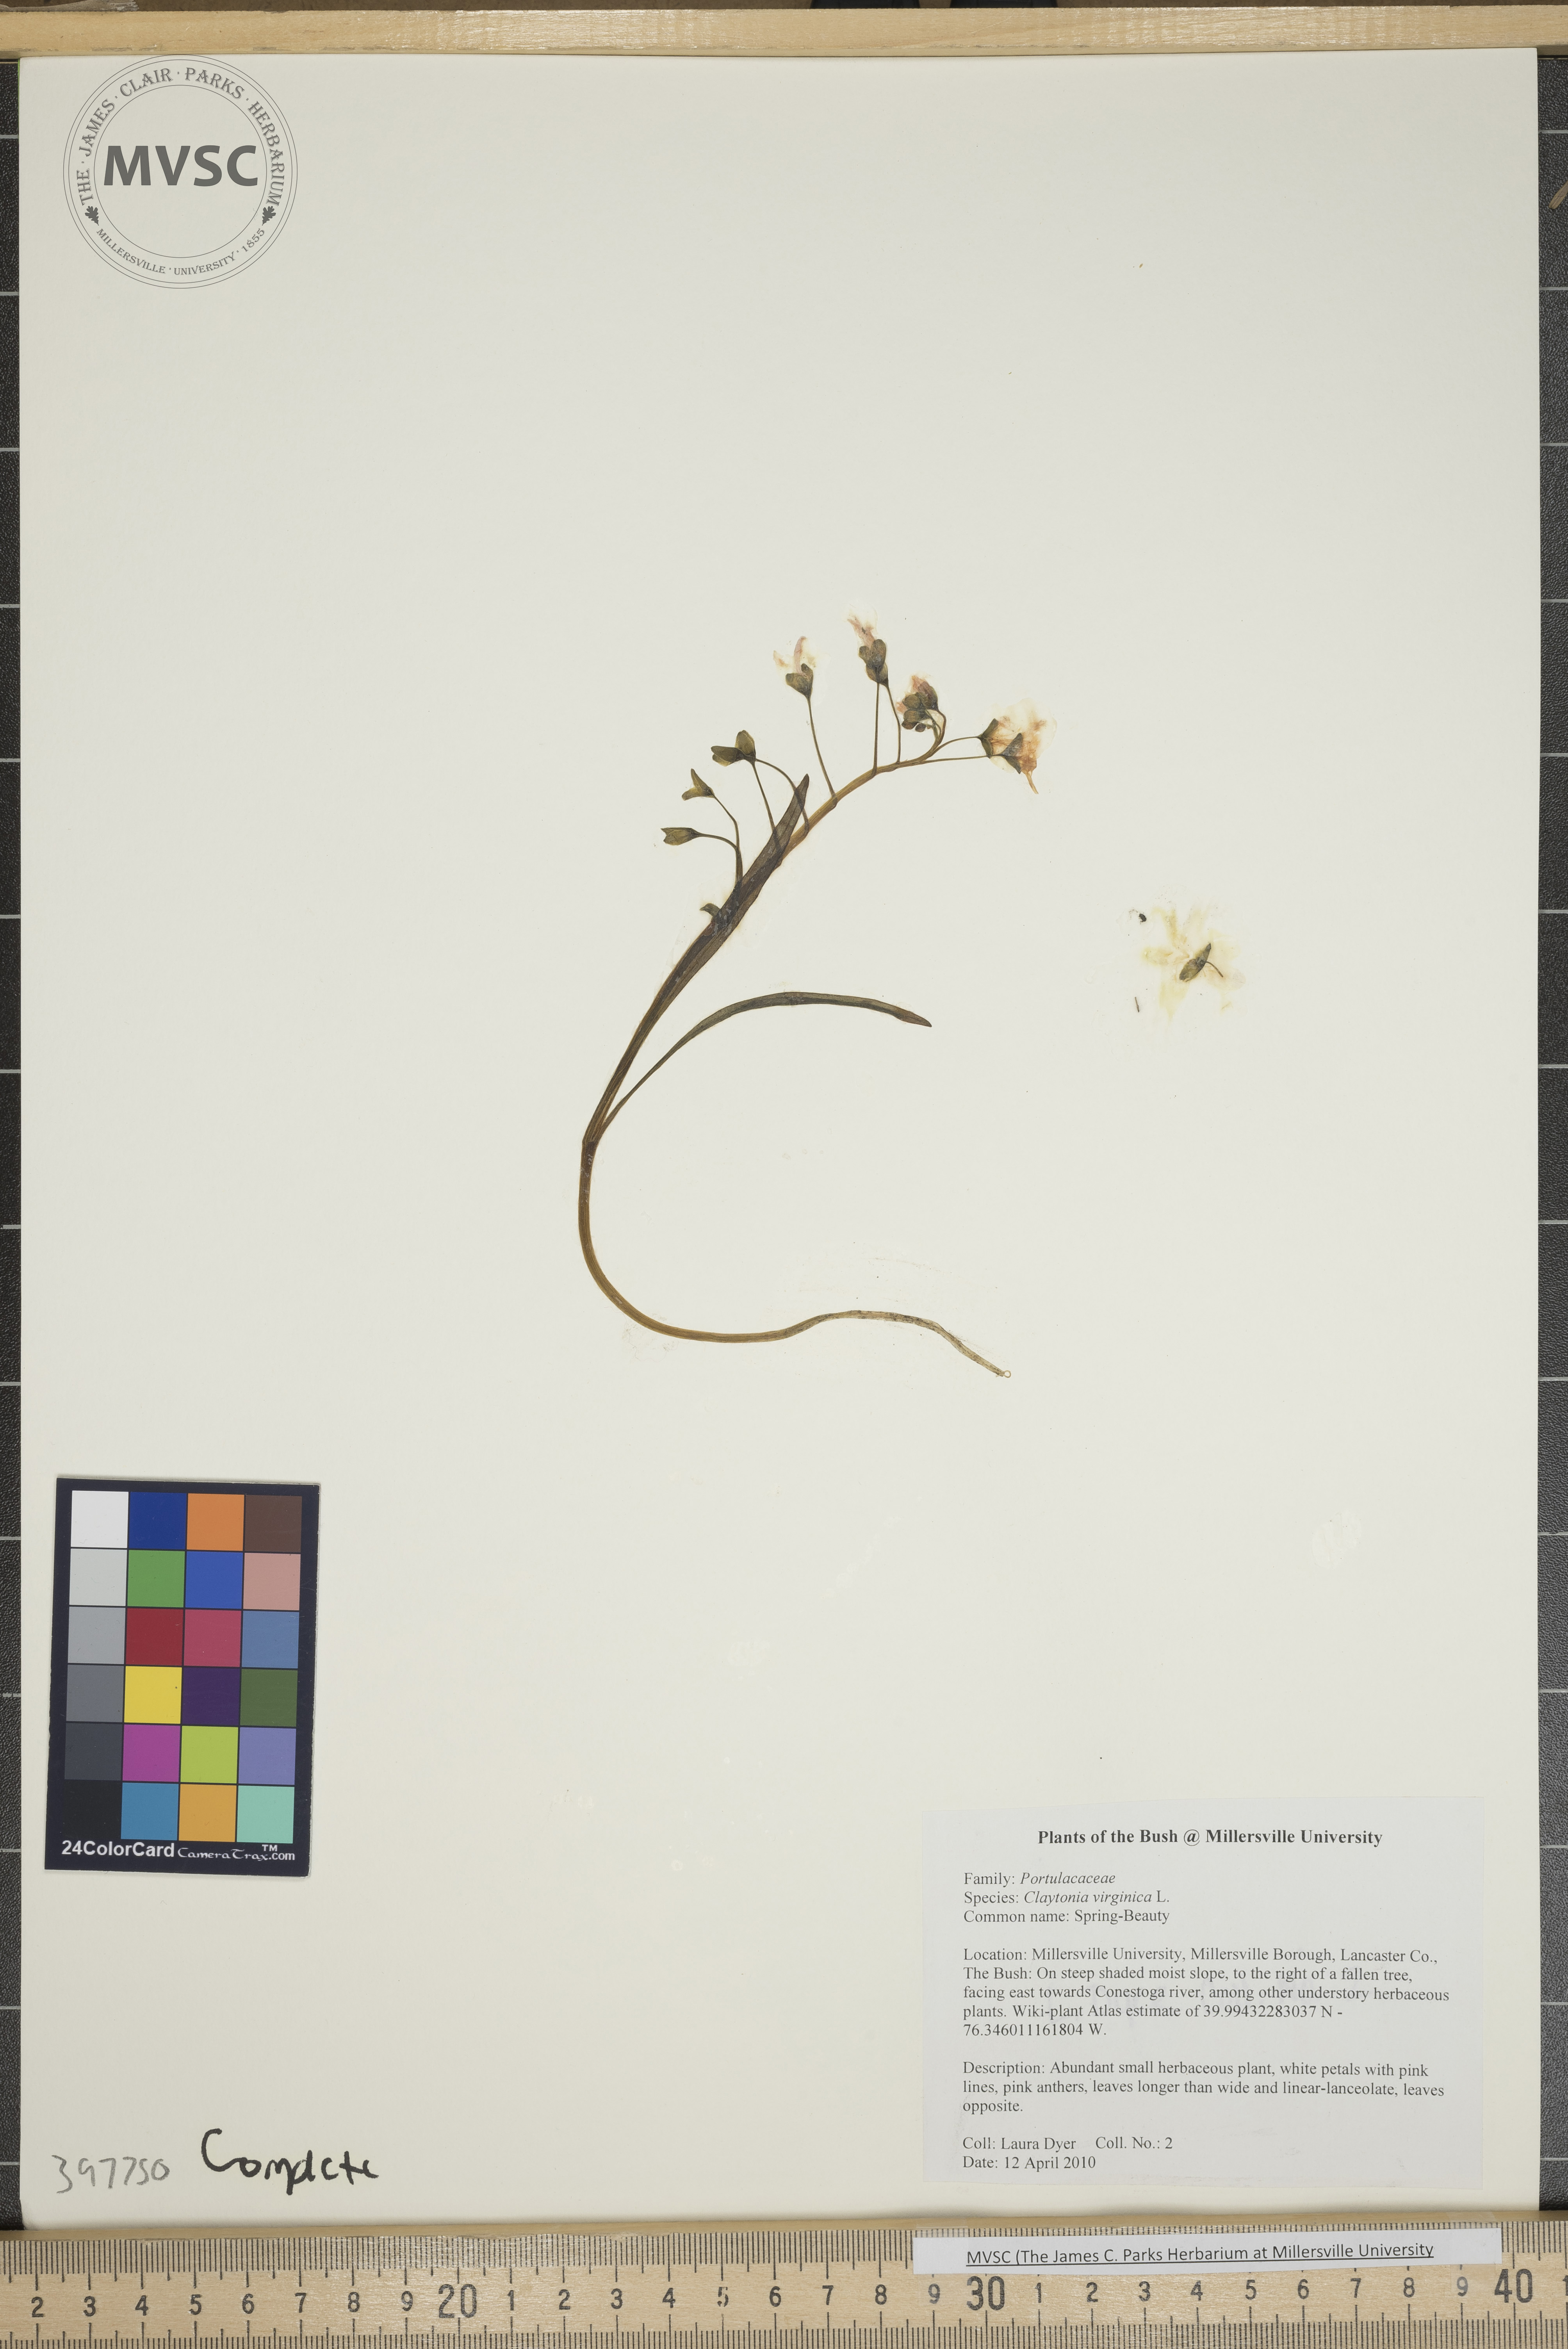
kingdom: Plantae
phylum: Tracheophyta
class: Magnoliopsida
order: Caryophyllales
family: Montiaceae
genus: Claytonia
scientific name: Claytonia virginica
